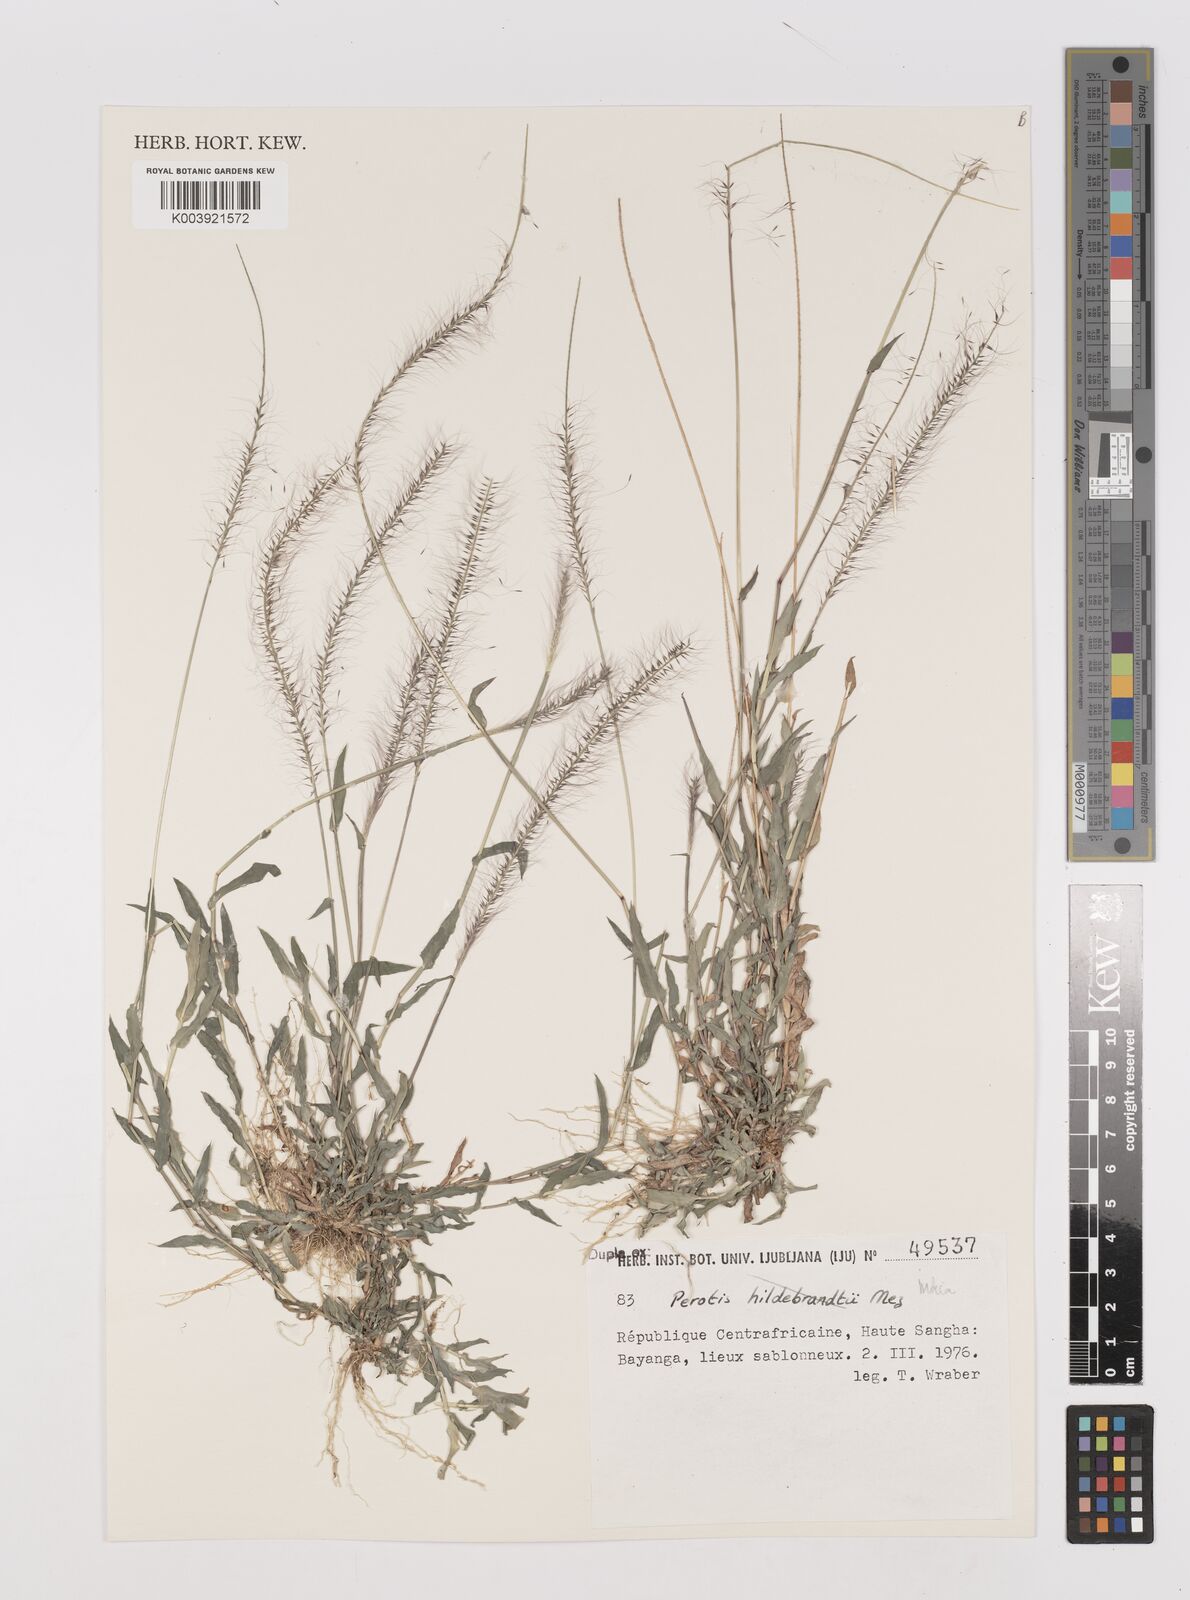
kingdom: Plantae
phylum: Tracheophyta
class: Liliopsida
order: Poales
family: Poaceae
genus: Perotis
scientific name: Perotis indica
